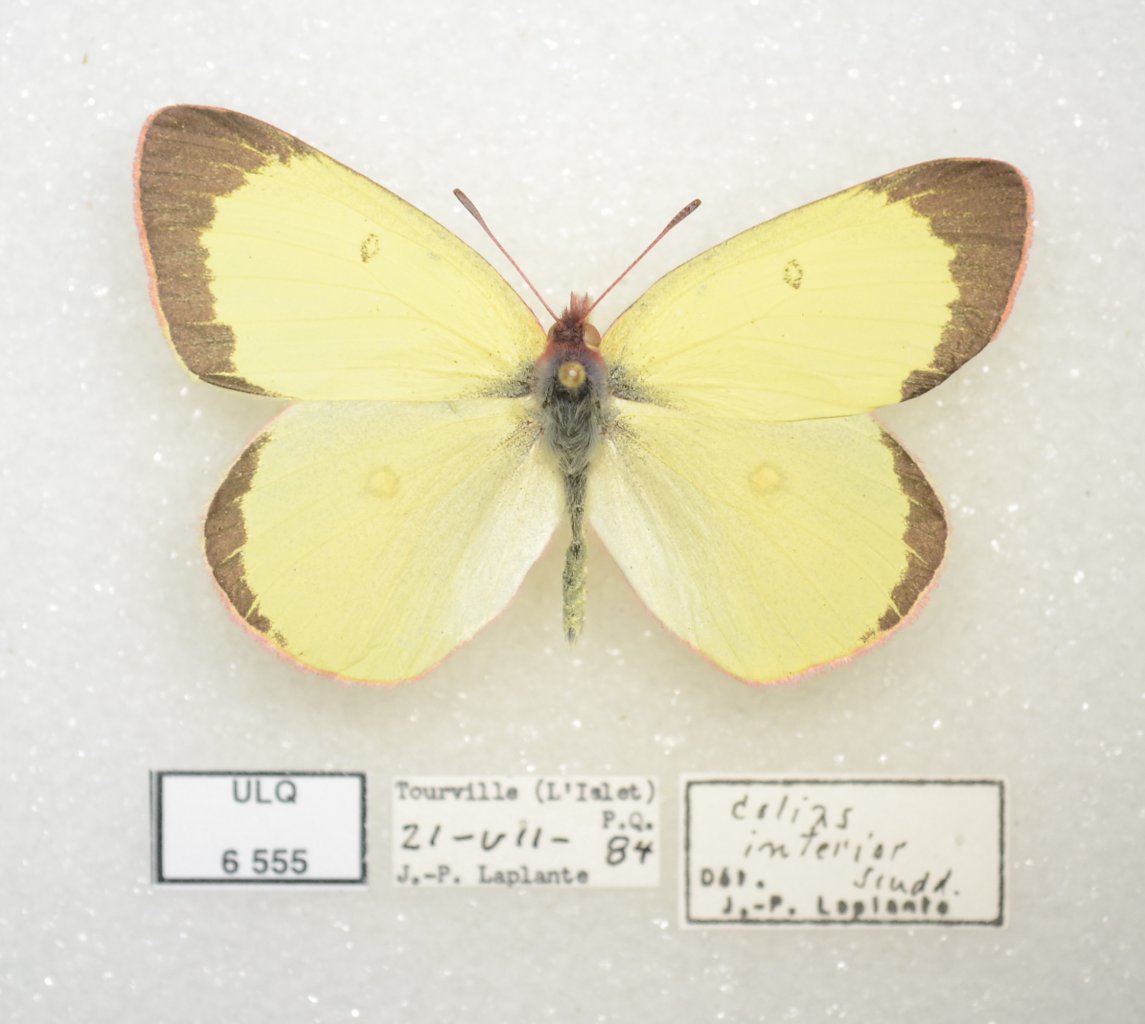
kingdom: Animalia
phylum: Arthropoda
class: Insecta
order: Lepidoptera
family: Pieridae
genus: Colias
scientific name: Colias interior
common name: Pink-edged Sulphur
